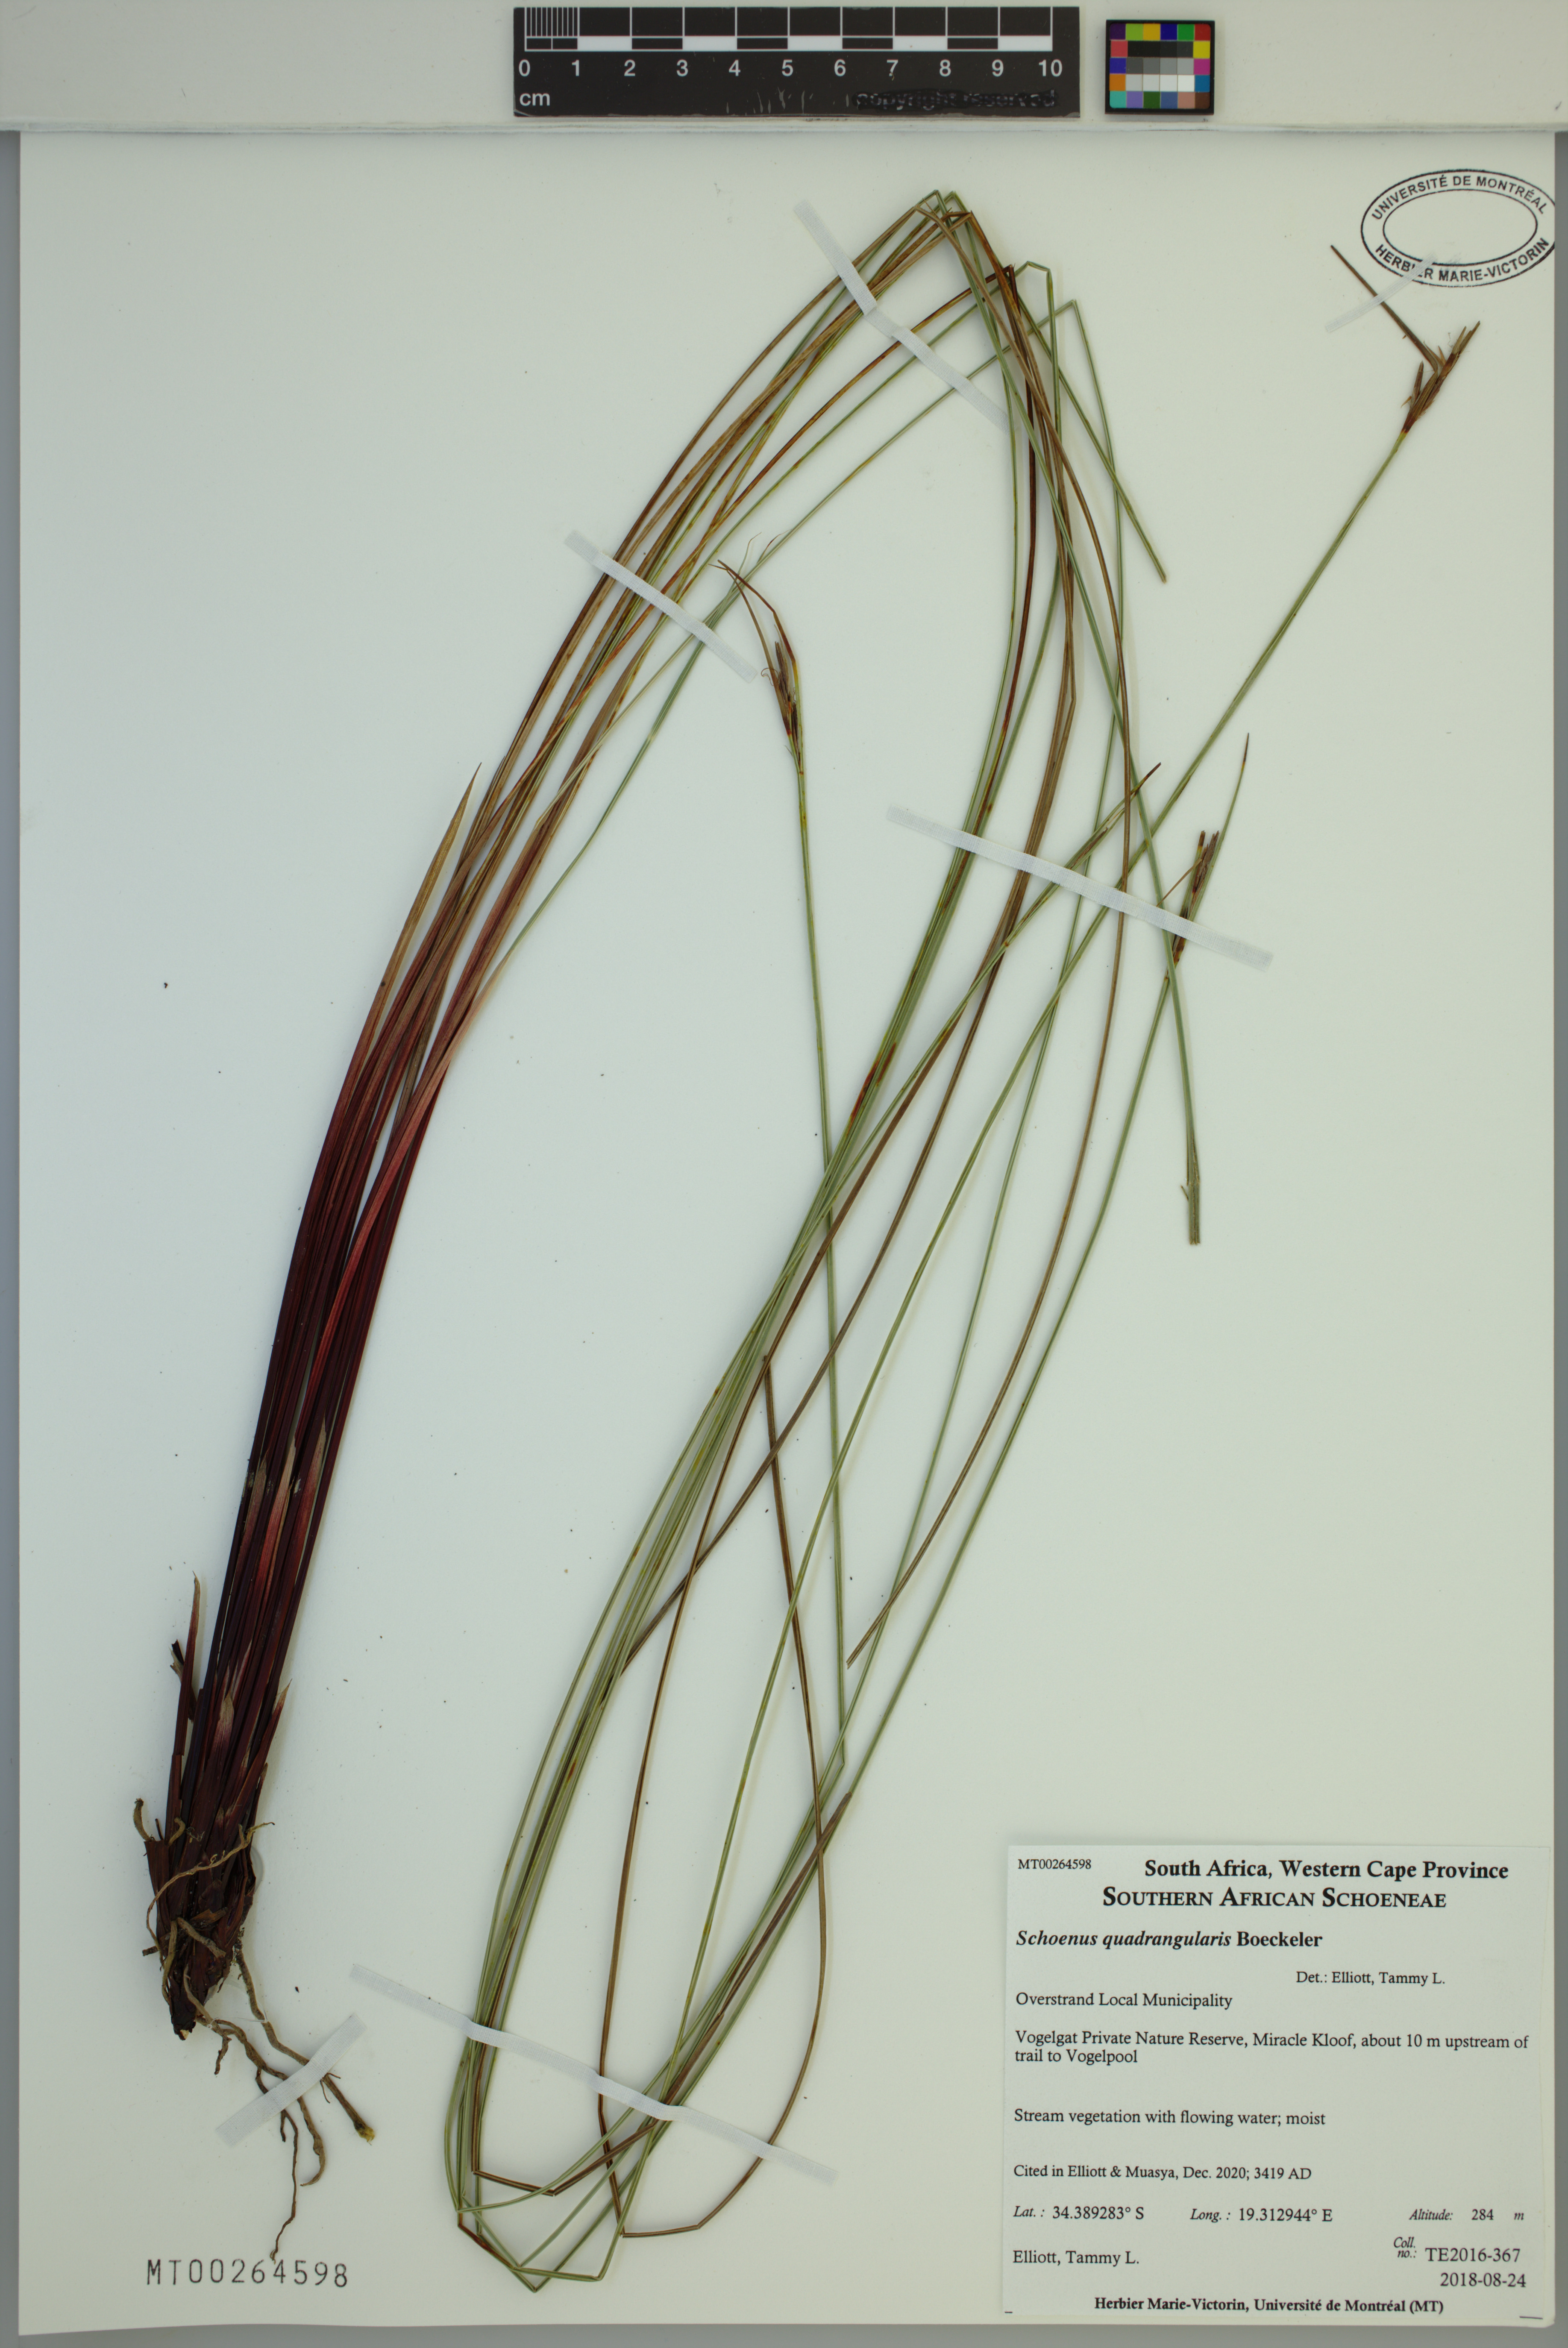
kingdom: Plantae
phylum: Tracheophyta
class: Liliopsida
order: Poales
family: Cyperaceae
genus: Schoenus
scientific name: Schoenus quadrangularis
